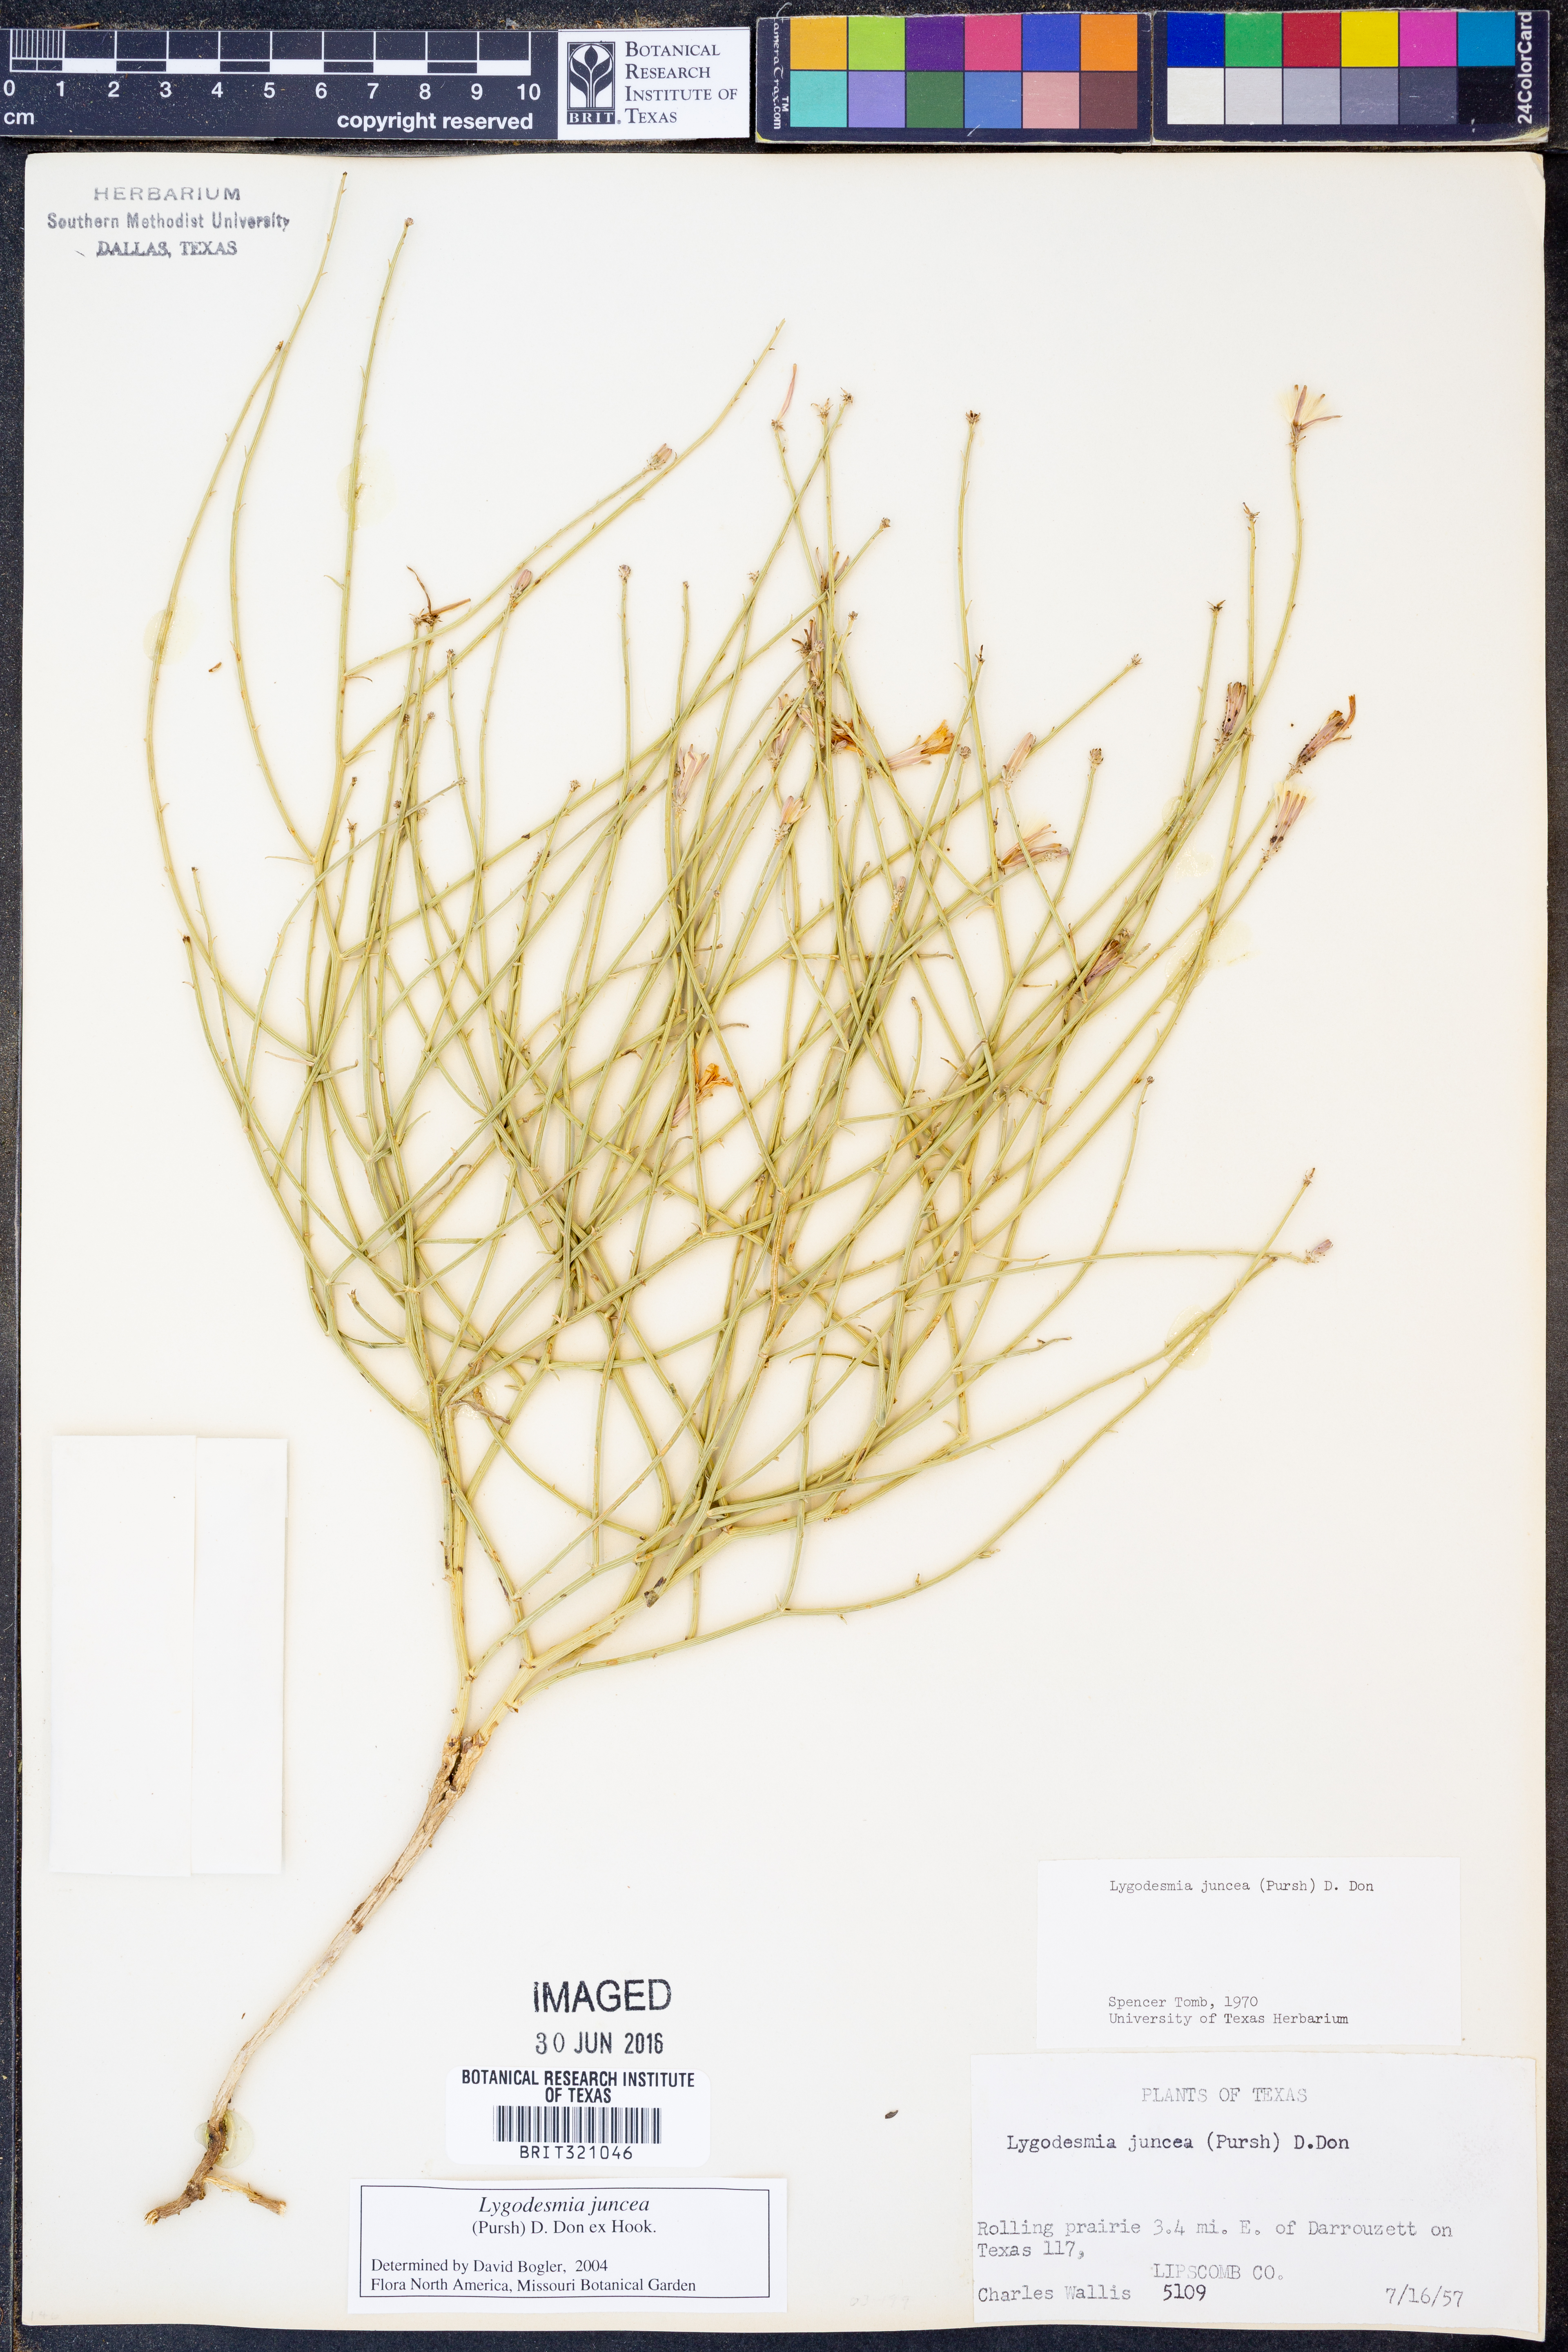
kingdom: Plantae
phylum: Tracheophyta
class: Magnoliopsida
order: Asterales
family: Asteraceae
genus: Lygodesmia
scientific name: Lygodesmia juncea
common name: Common skeletonweed
